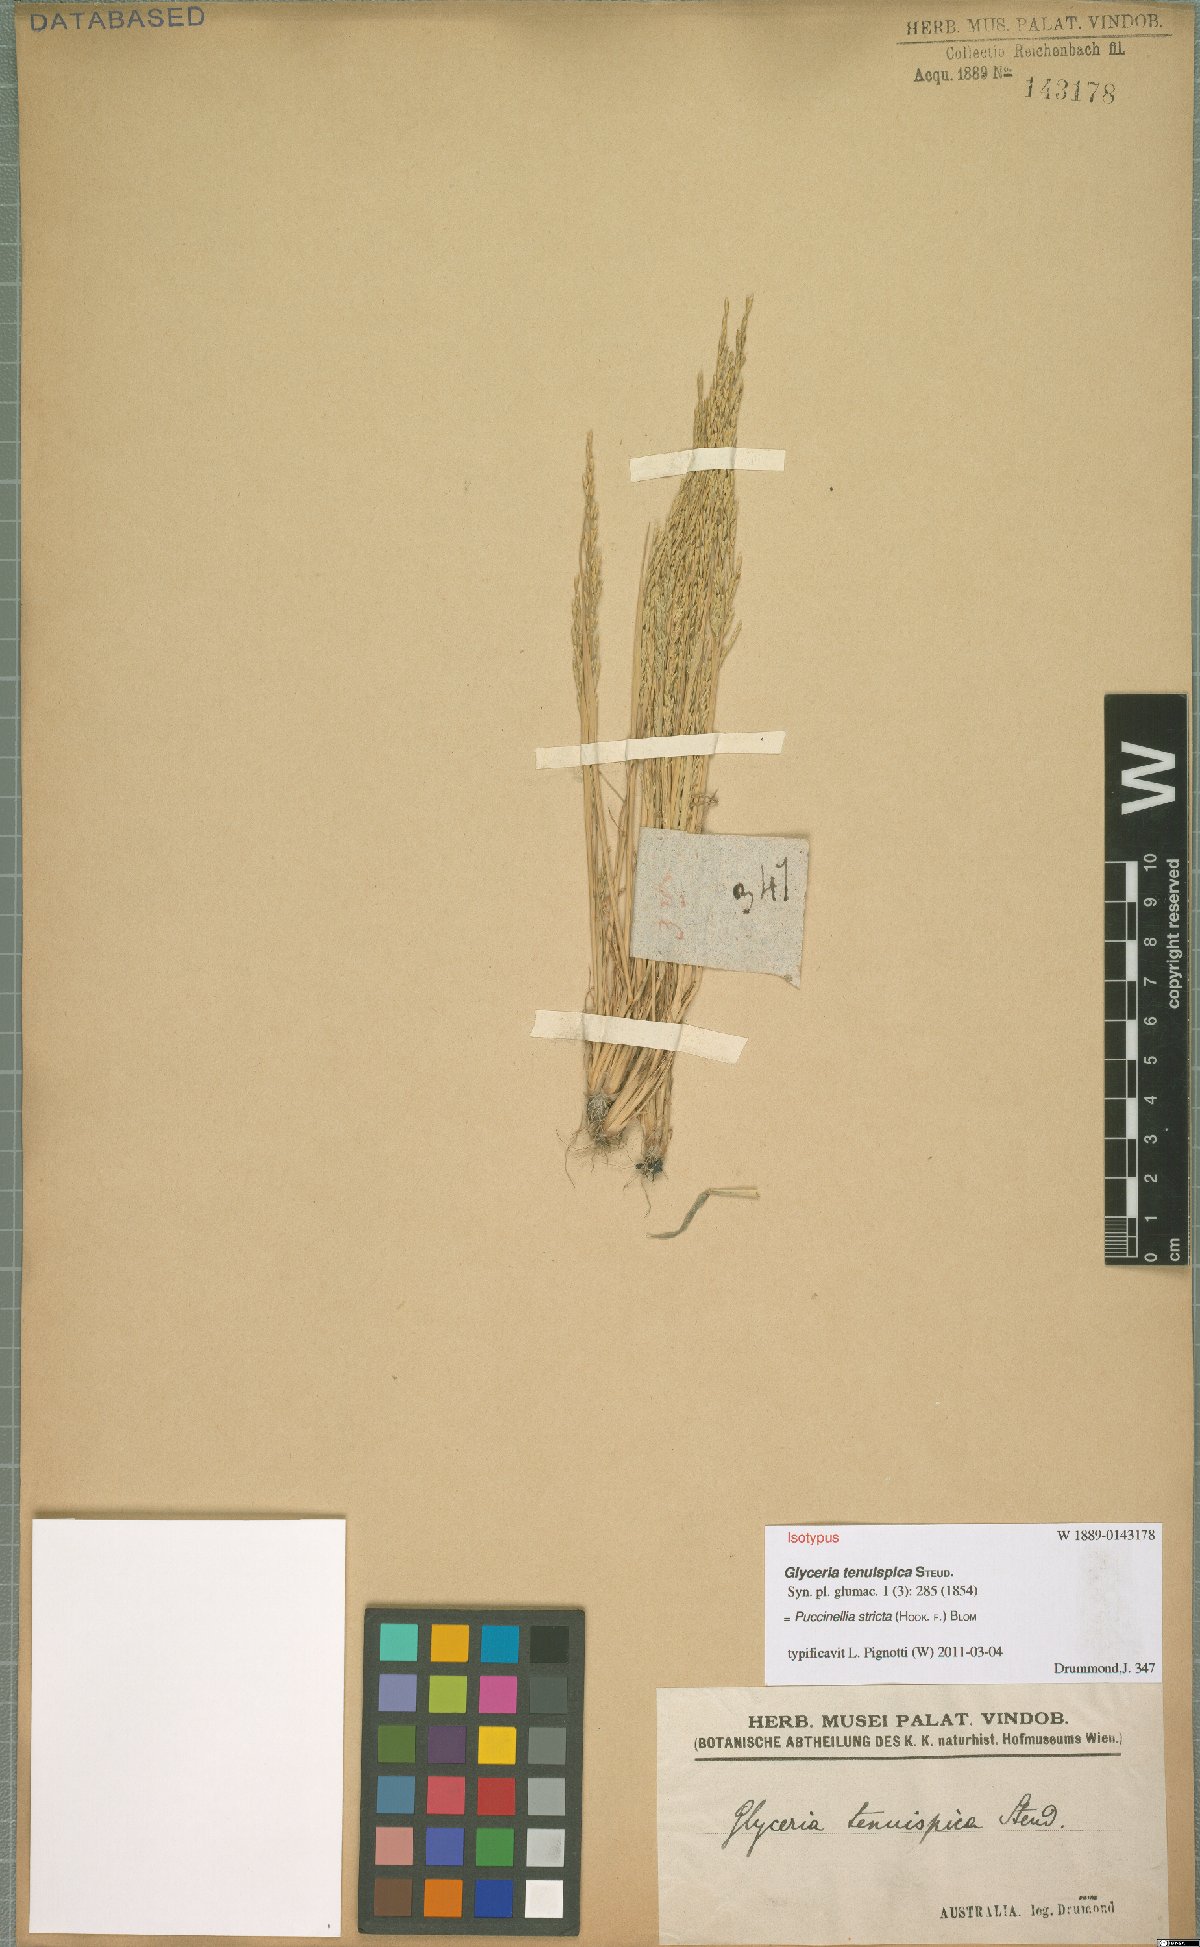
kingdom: Plantae
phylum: Tracheophyta
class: Liliopsida
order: Poales
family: Poaceae
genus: Puccinellia
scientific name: Puccinellia stricta
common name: Australian saltmarsh grass
